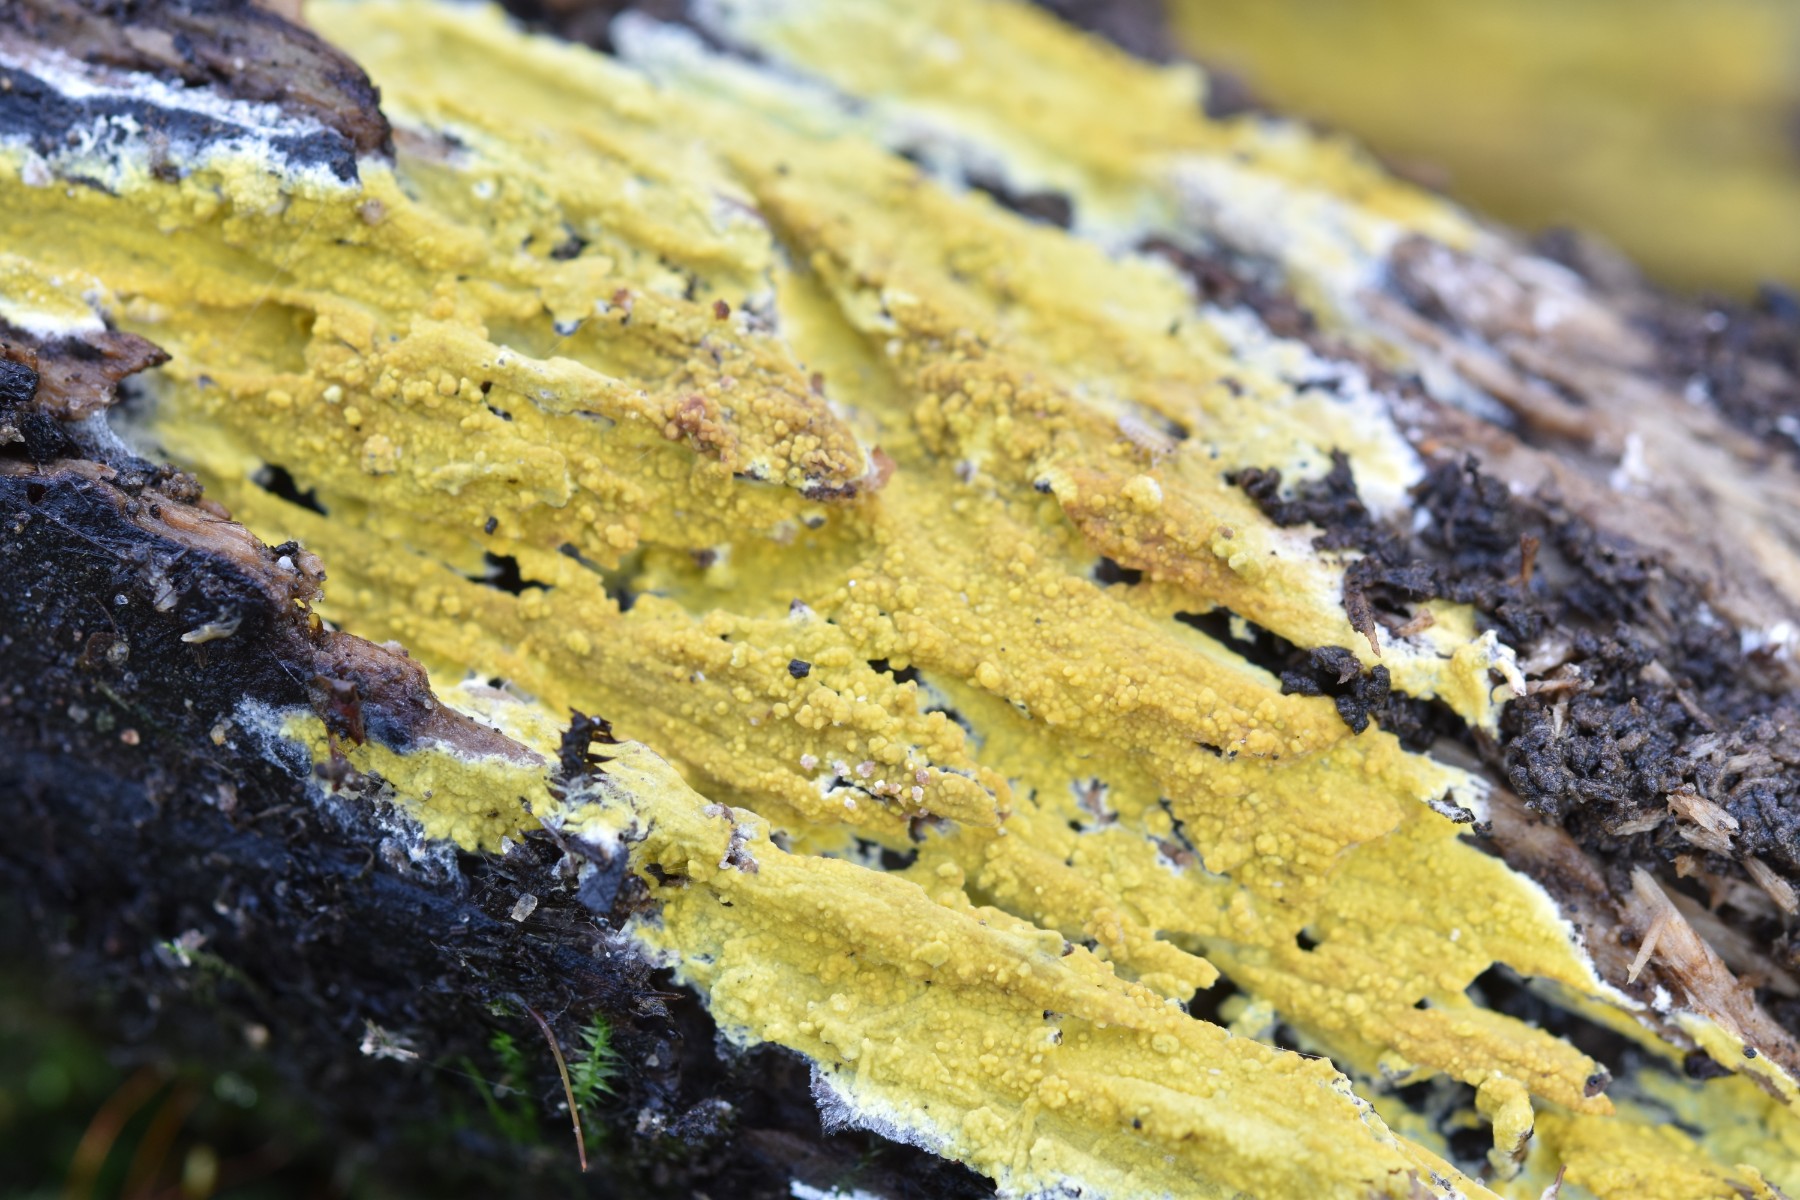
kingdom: Fungi
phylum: Basidiomycota
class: Agaricomycetes
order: Polyporales
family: Meruliaceae
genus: Phlebiodontia
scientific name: Phlebiodontia subochracea
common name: svovl-åresvamp
